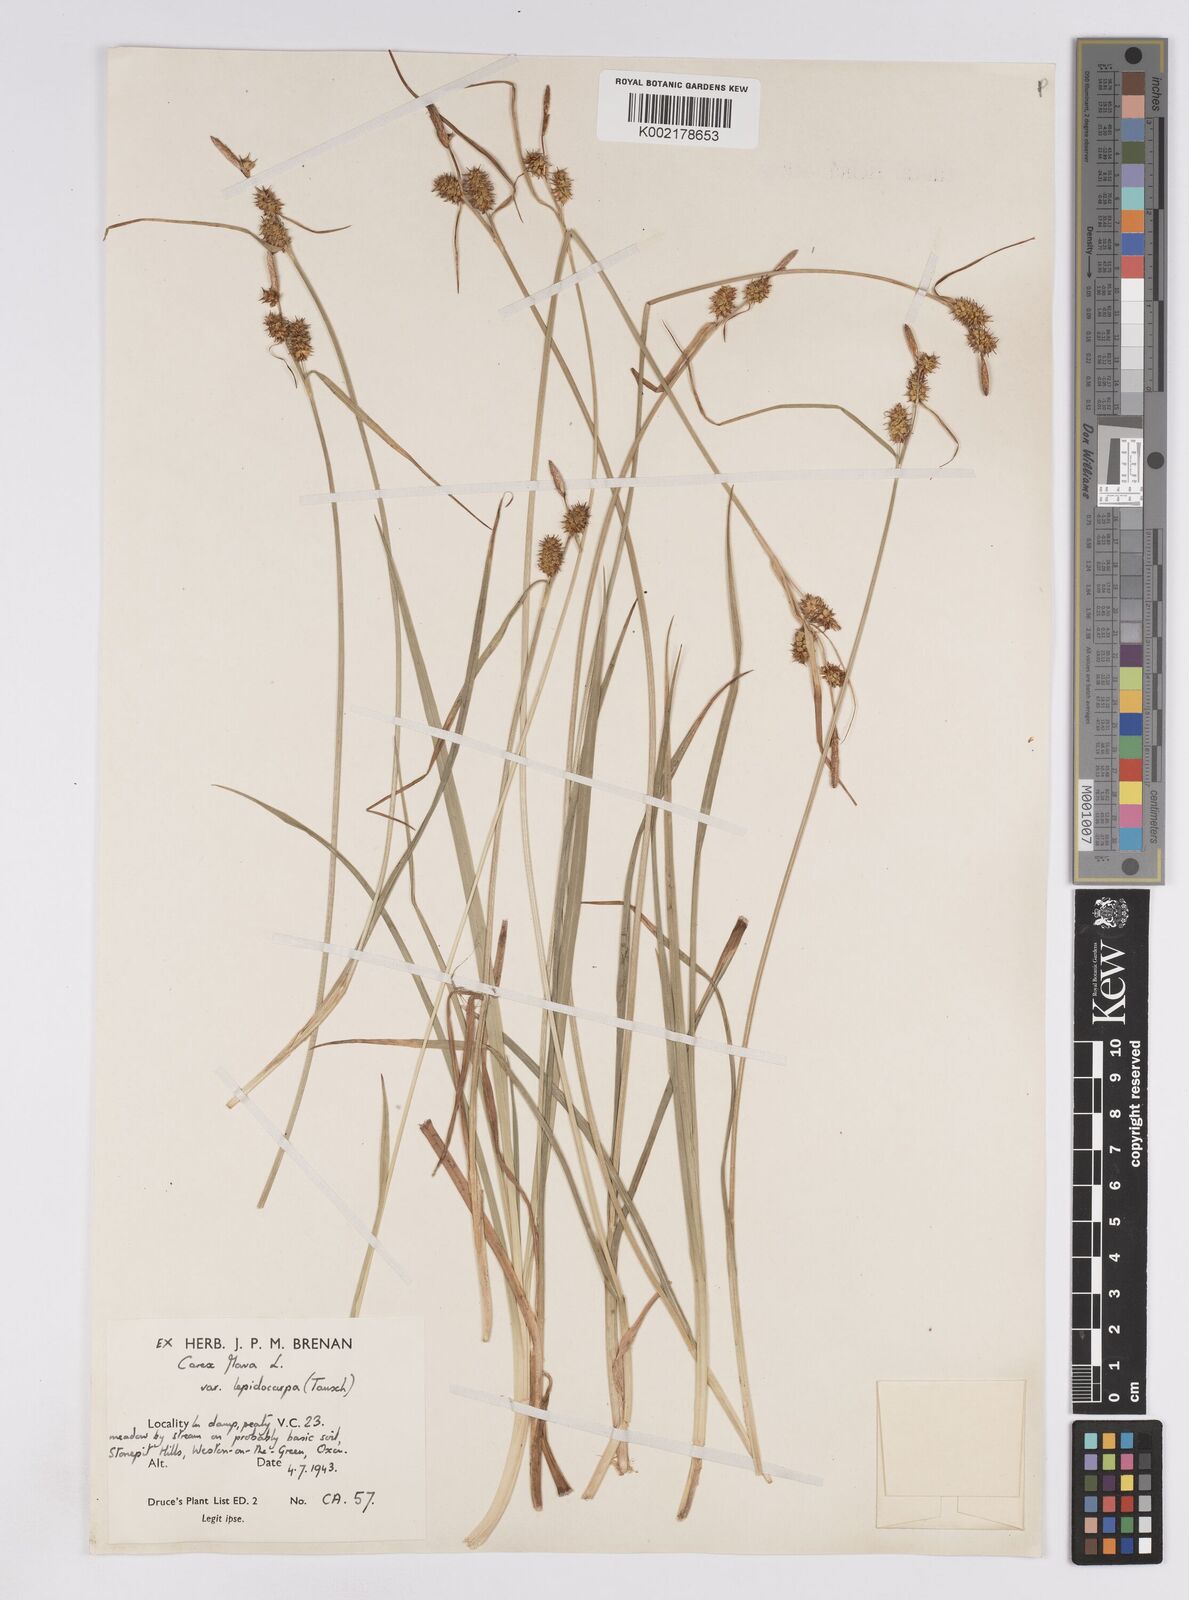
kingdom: Plantae
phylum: Tracheophyta
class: Liliopsida
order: Poales
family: Cyperaceae
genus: Carex
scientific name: Carex lepidocarpa
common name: Long-stalked yellow-sedge
